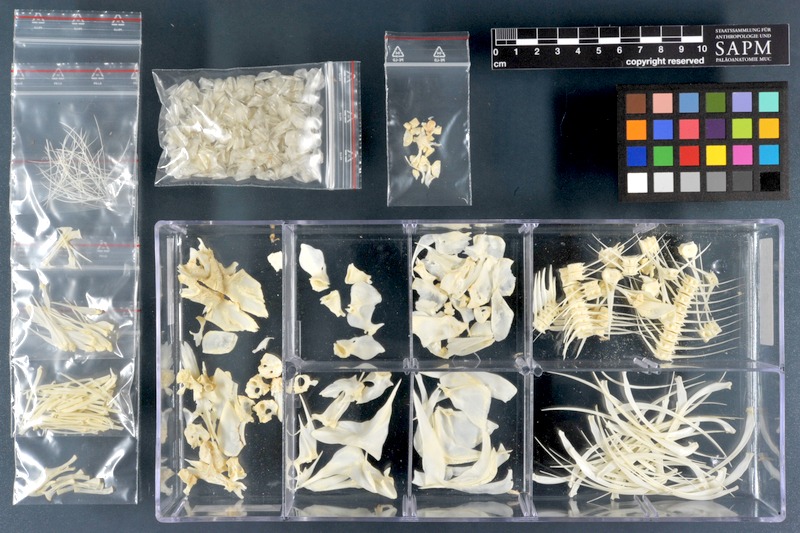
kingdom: Animalia
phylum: Chordata
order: Characiformes
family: Distichodontidae
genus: Distichodus
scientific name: Distichodus lusosso
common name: Longsnout distichodus
